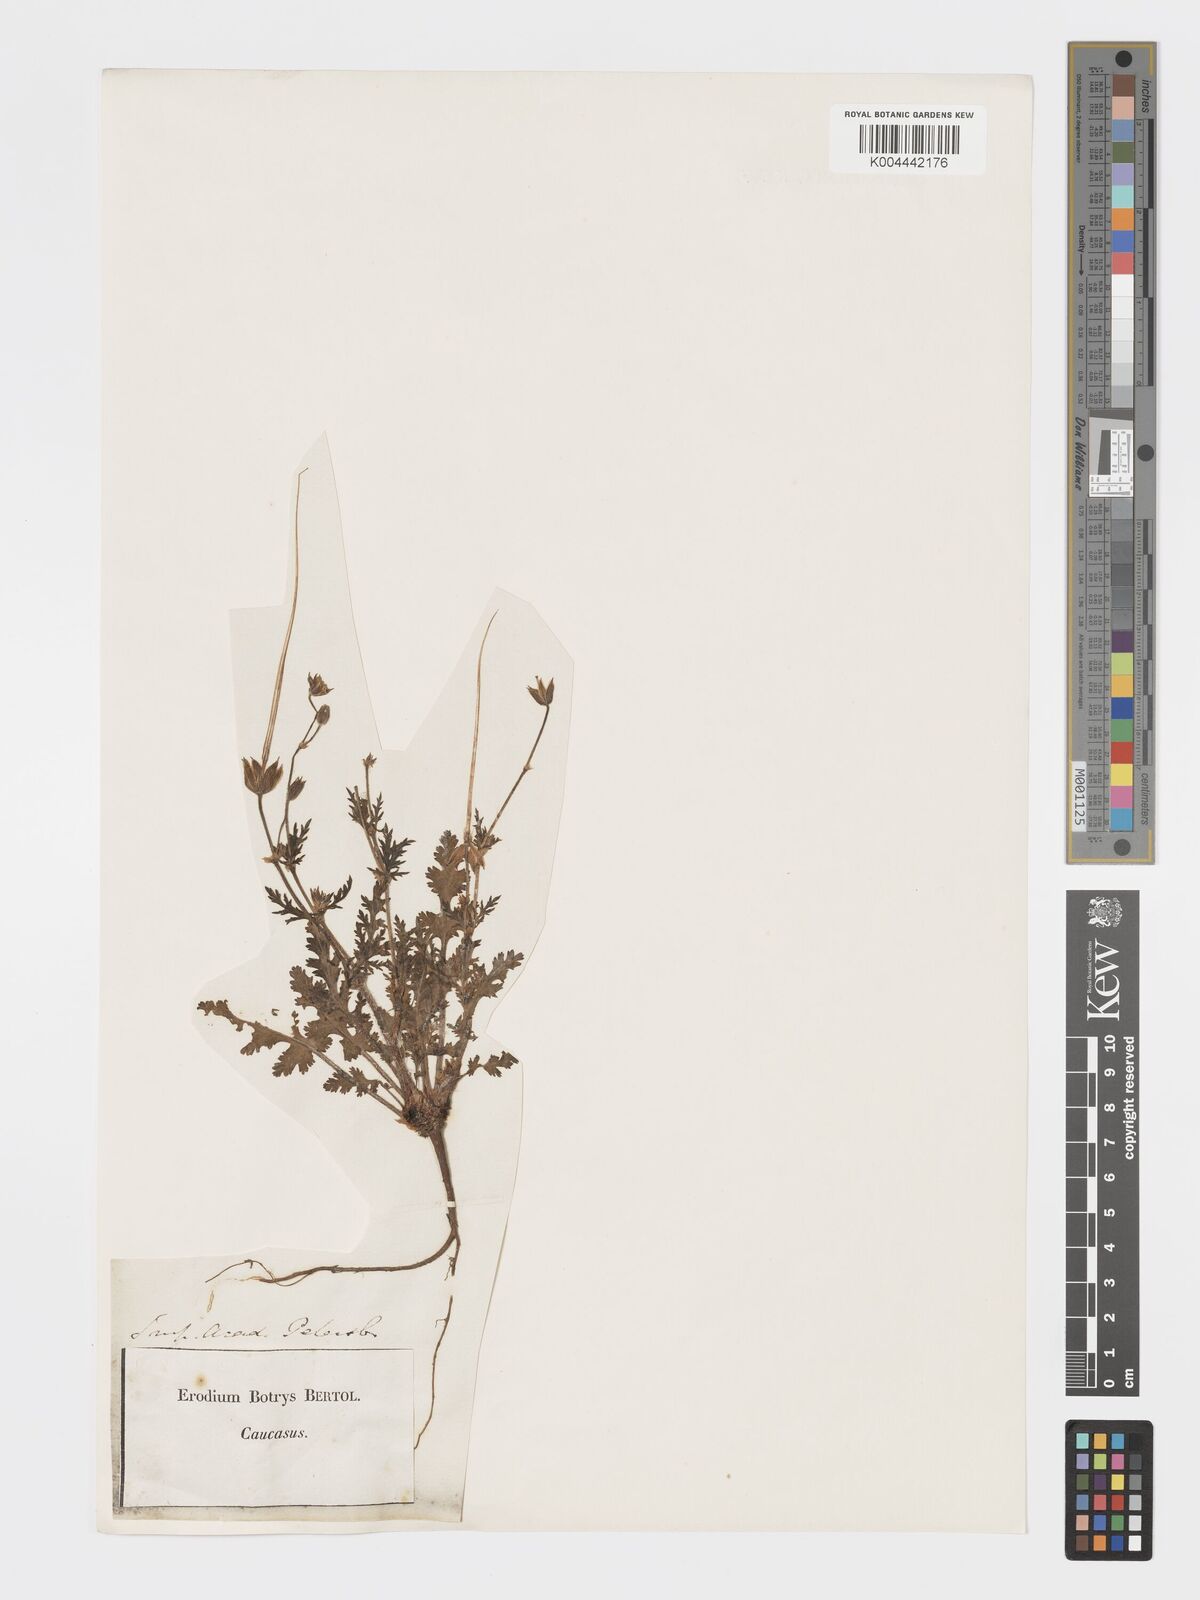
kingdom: Plantae
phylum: Tracheophyta
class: Magnoliopsida
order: Geraniales
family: Geraniaceae
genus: Erodium
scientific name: Erodium
